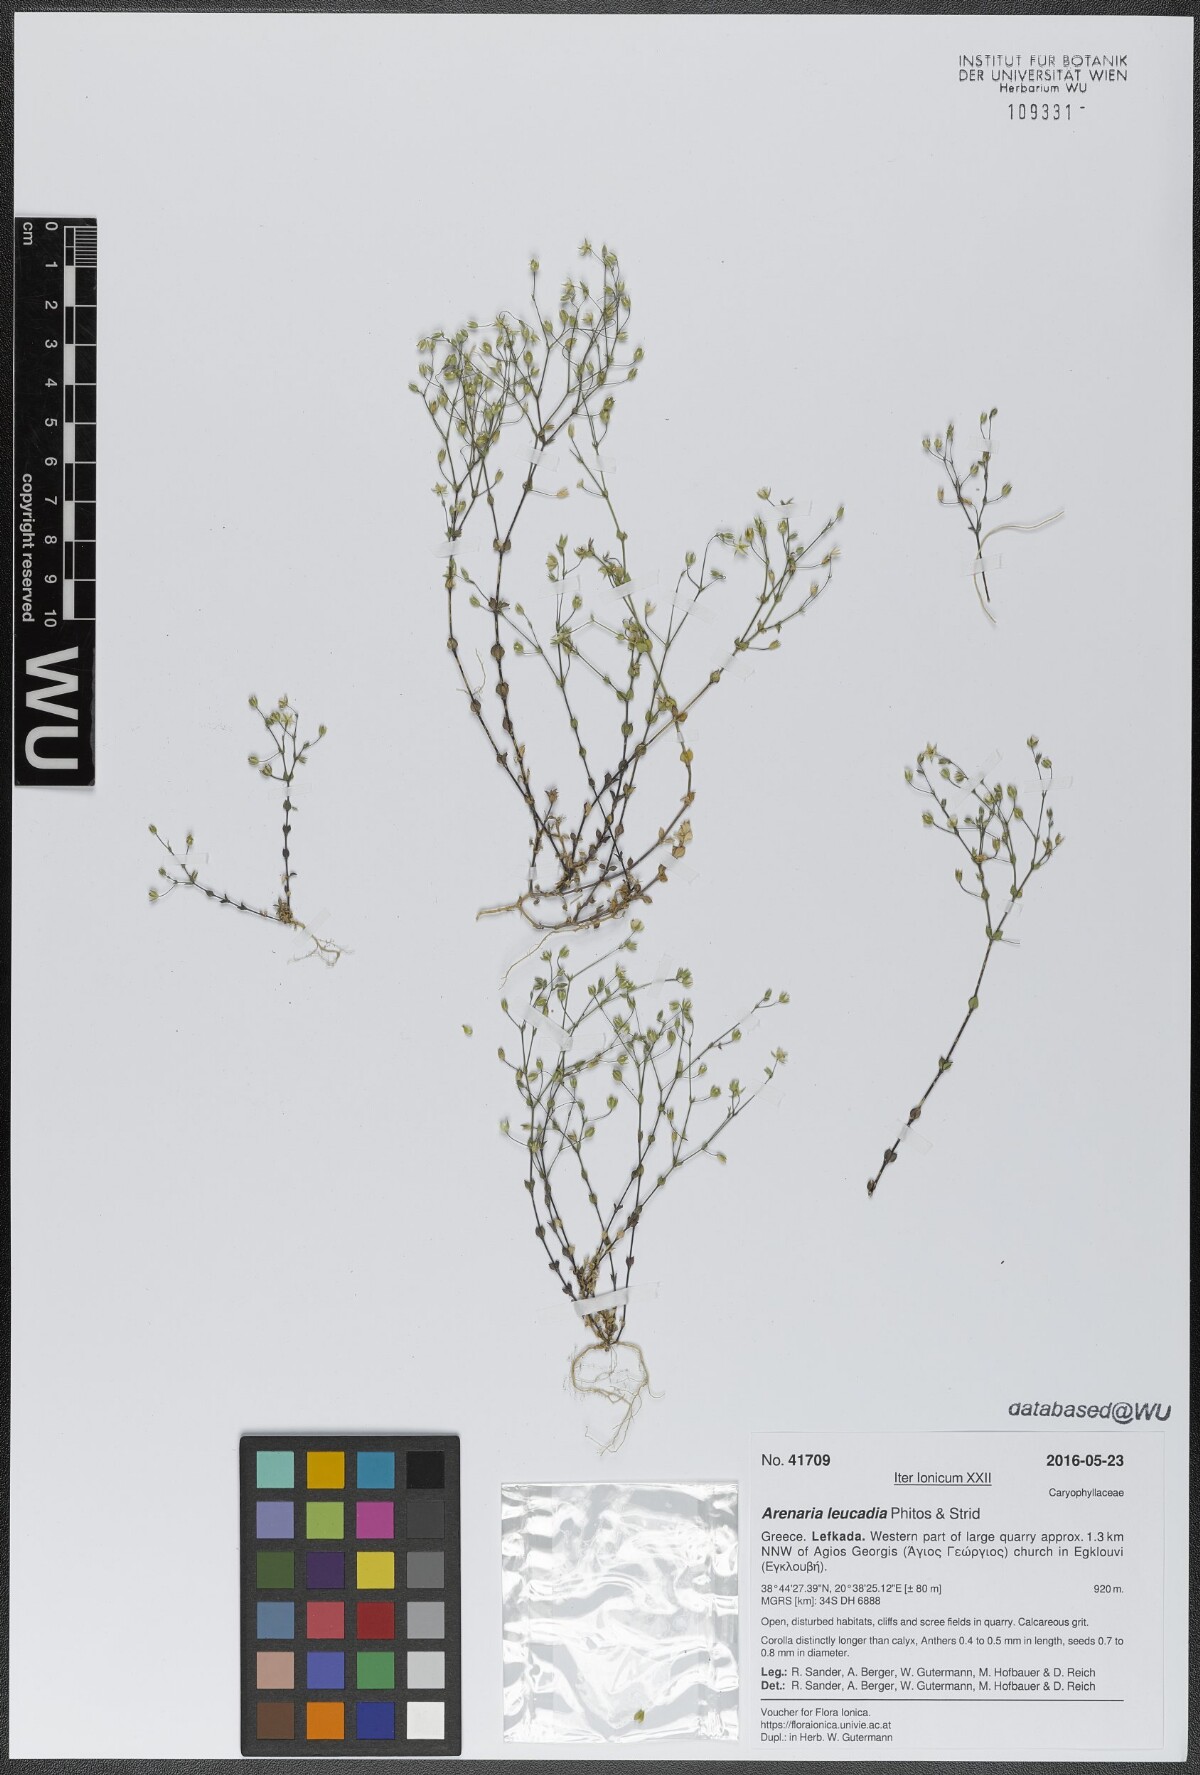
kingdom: Plantae
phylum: Tracheophyta
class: Magnoliopsida
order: Caryophyllales
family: Caryophyllaceae
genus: Arenaria
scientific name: Arenaria leucadia
